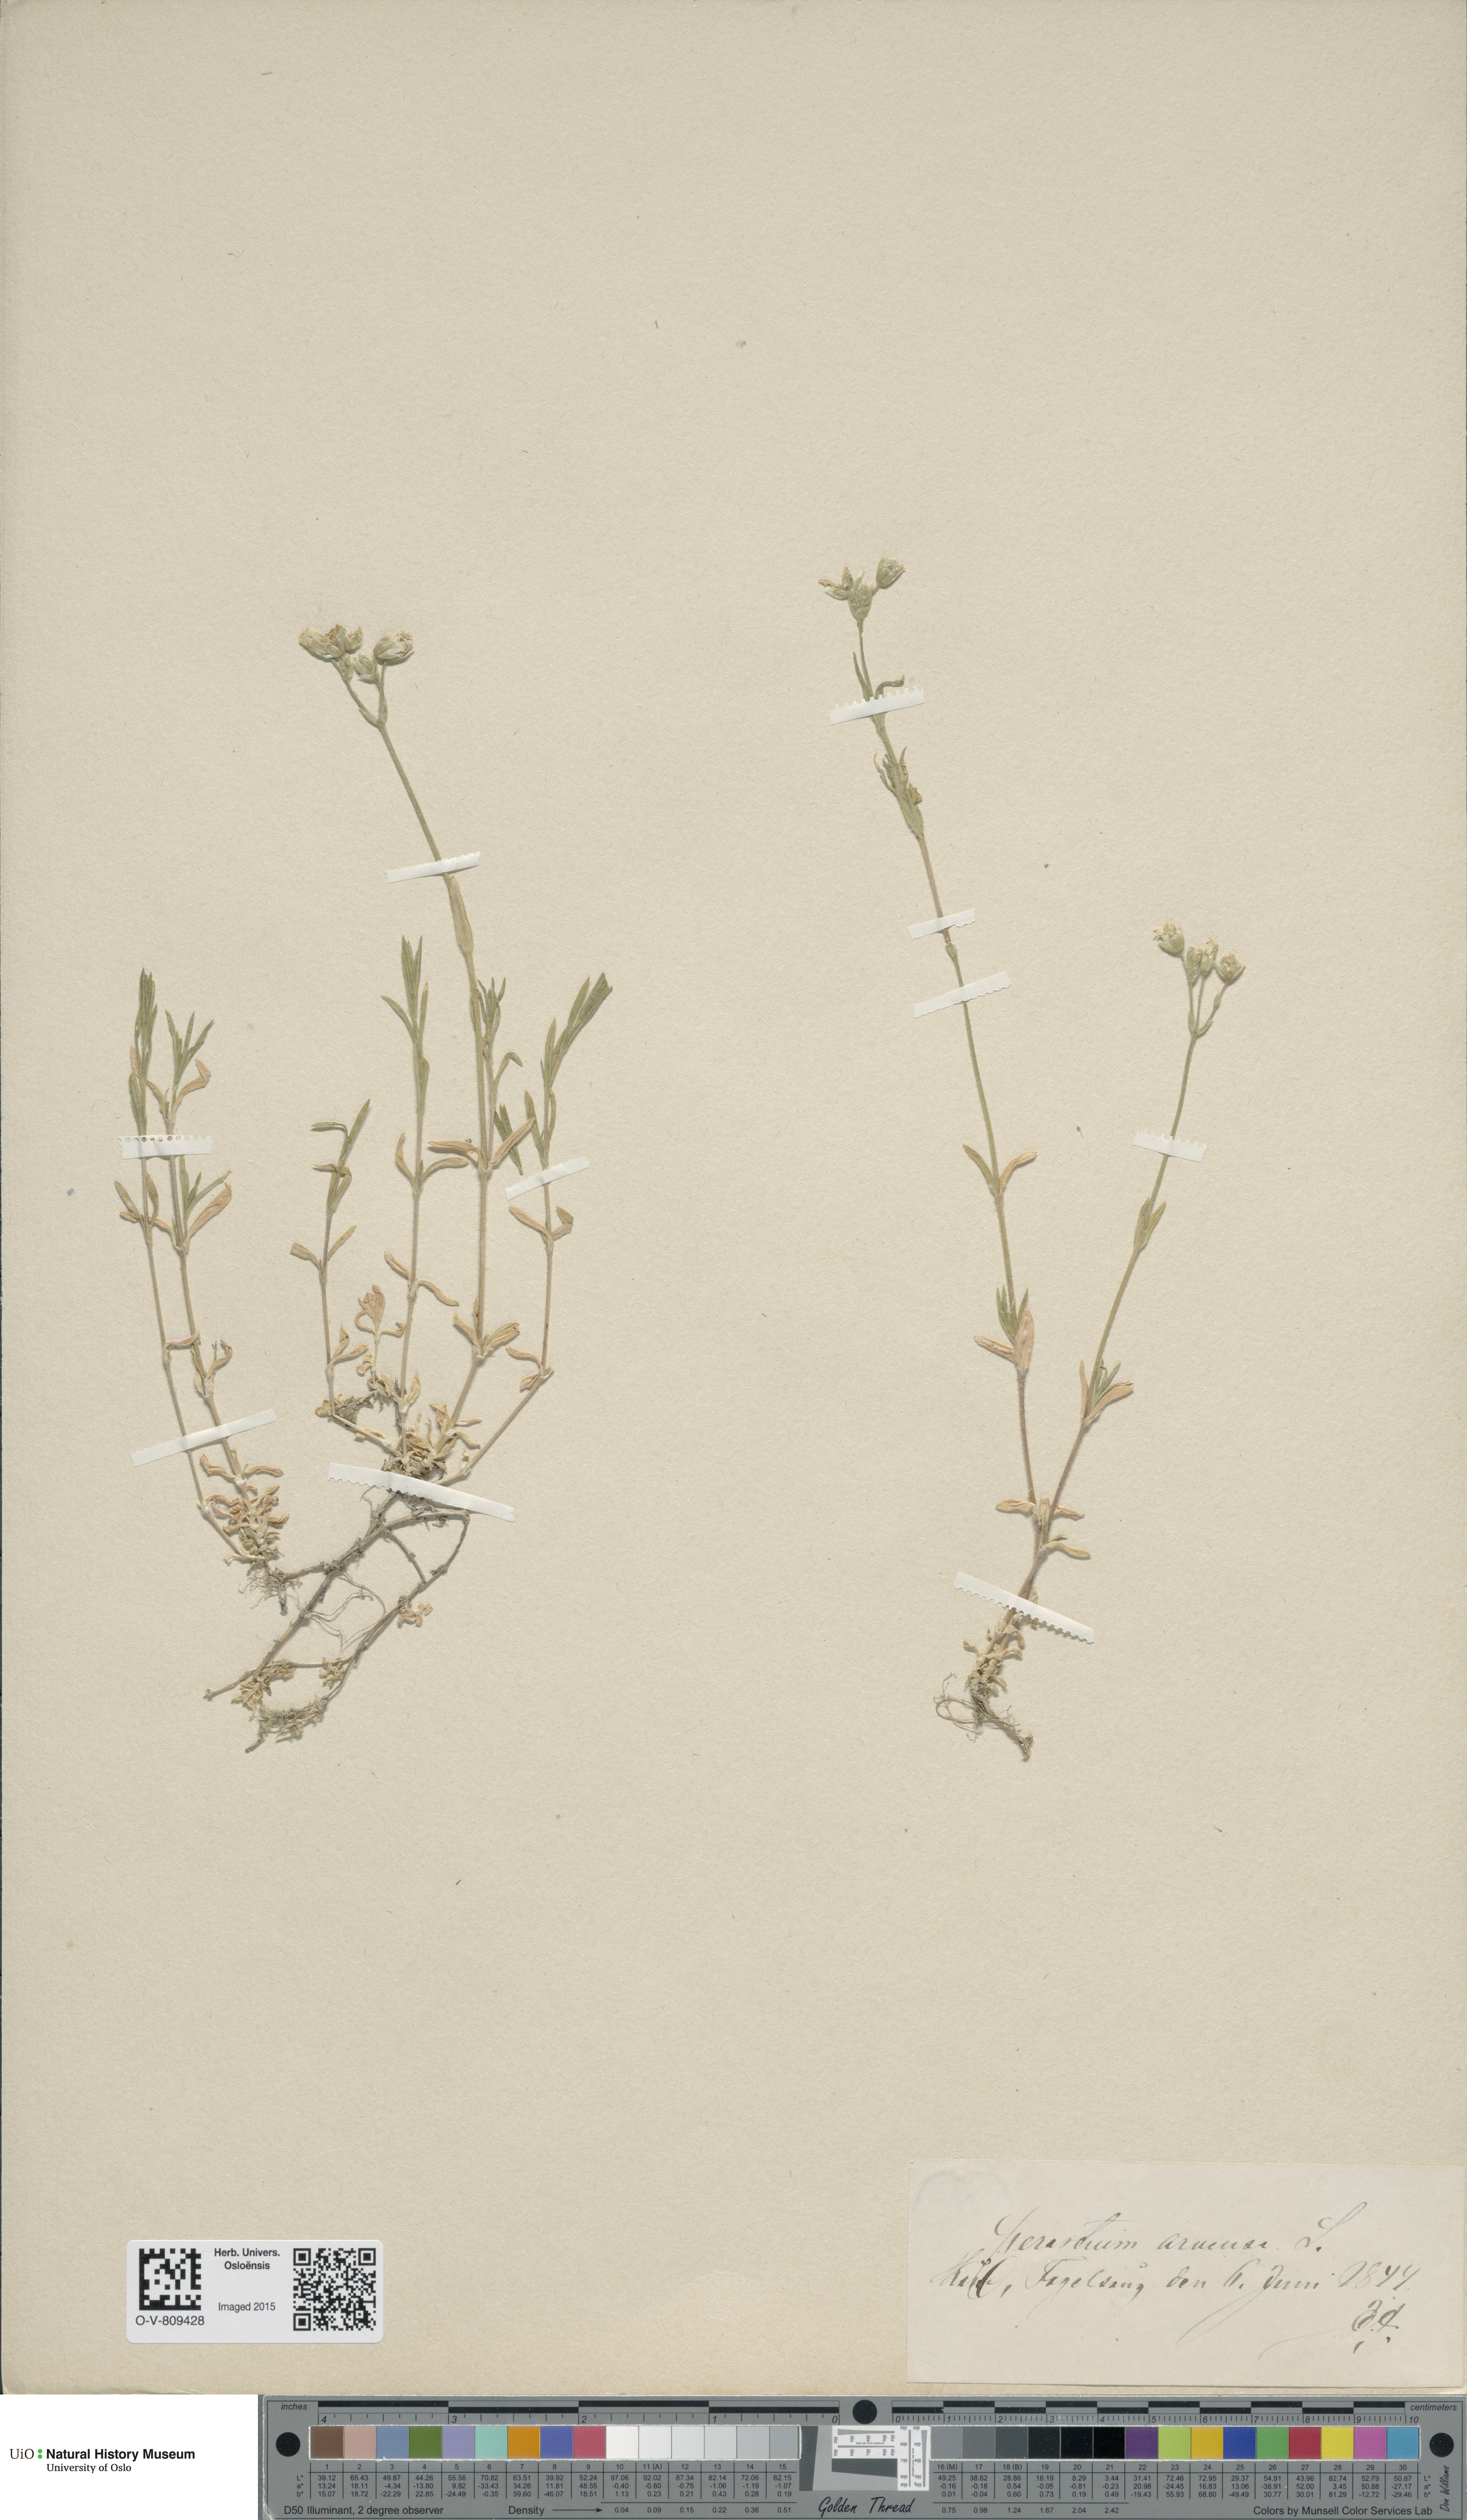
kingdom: Plantae
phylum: Tracheophyta
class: Magnoliopsida
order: Caryophyllales
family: Caryophyllaceae
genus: Cerastium
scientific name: Cerastium arvense
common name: Field mouse-ear
